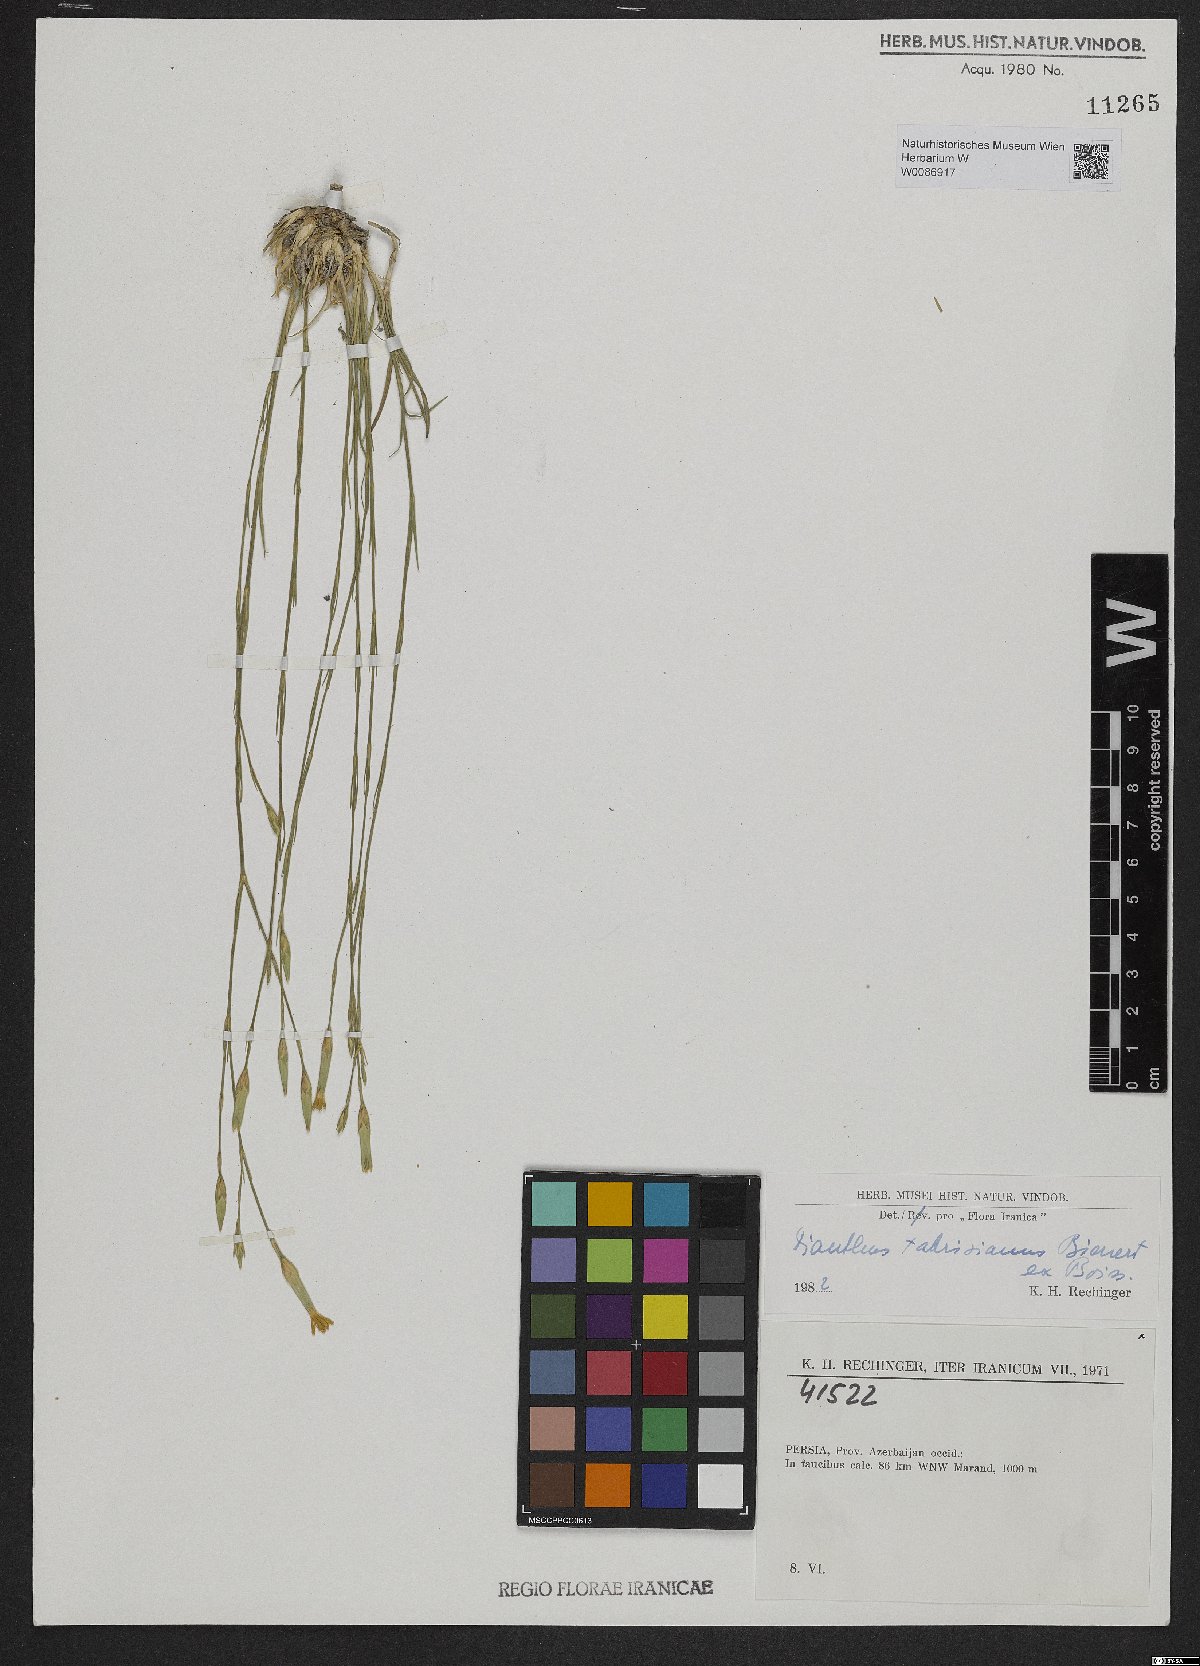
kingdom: Plantae
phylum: Tracheophyta
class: Magnoliopsida
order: Caryophyllales
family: Caryophyllaceae
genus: Dianthus
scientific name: Dianthus tabrisianus
